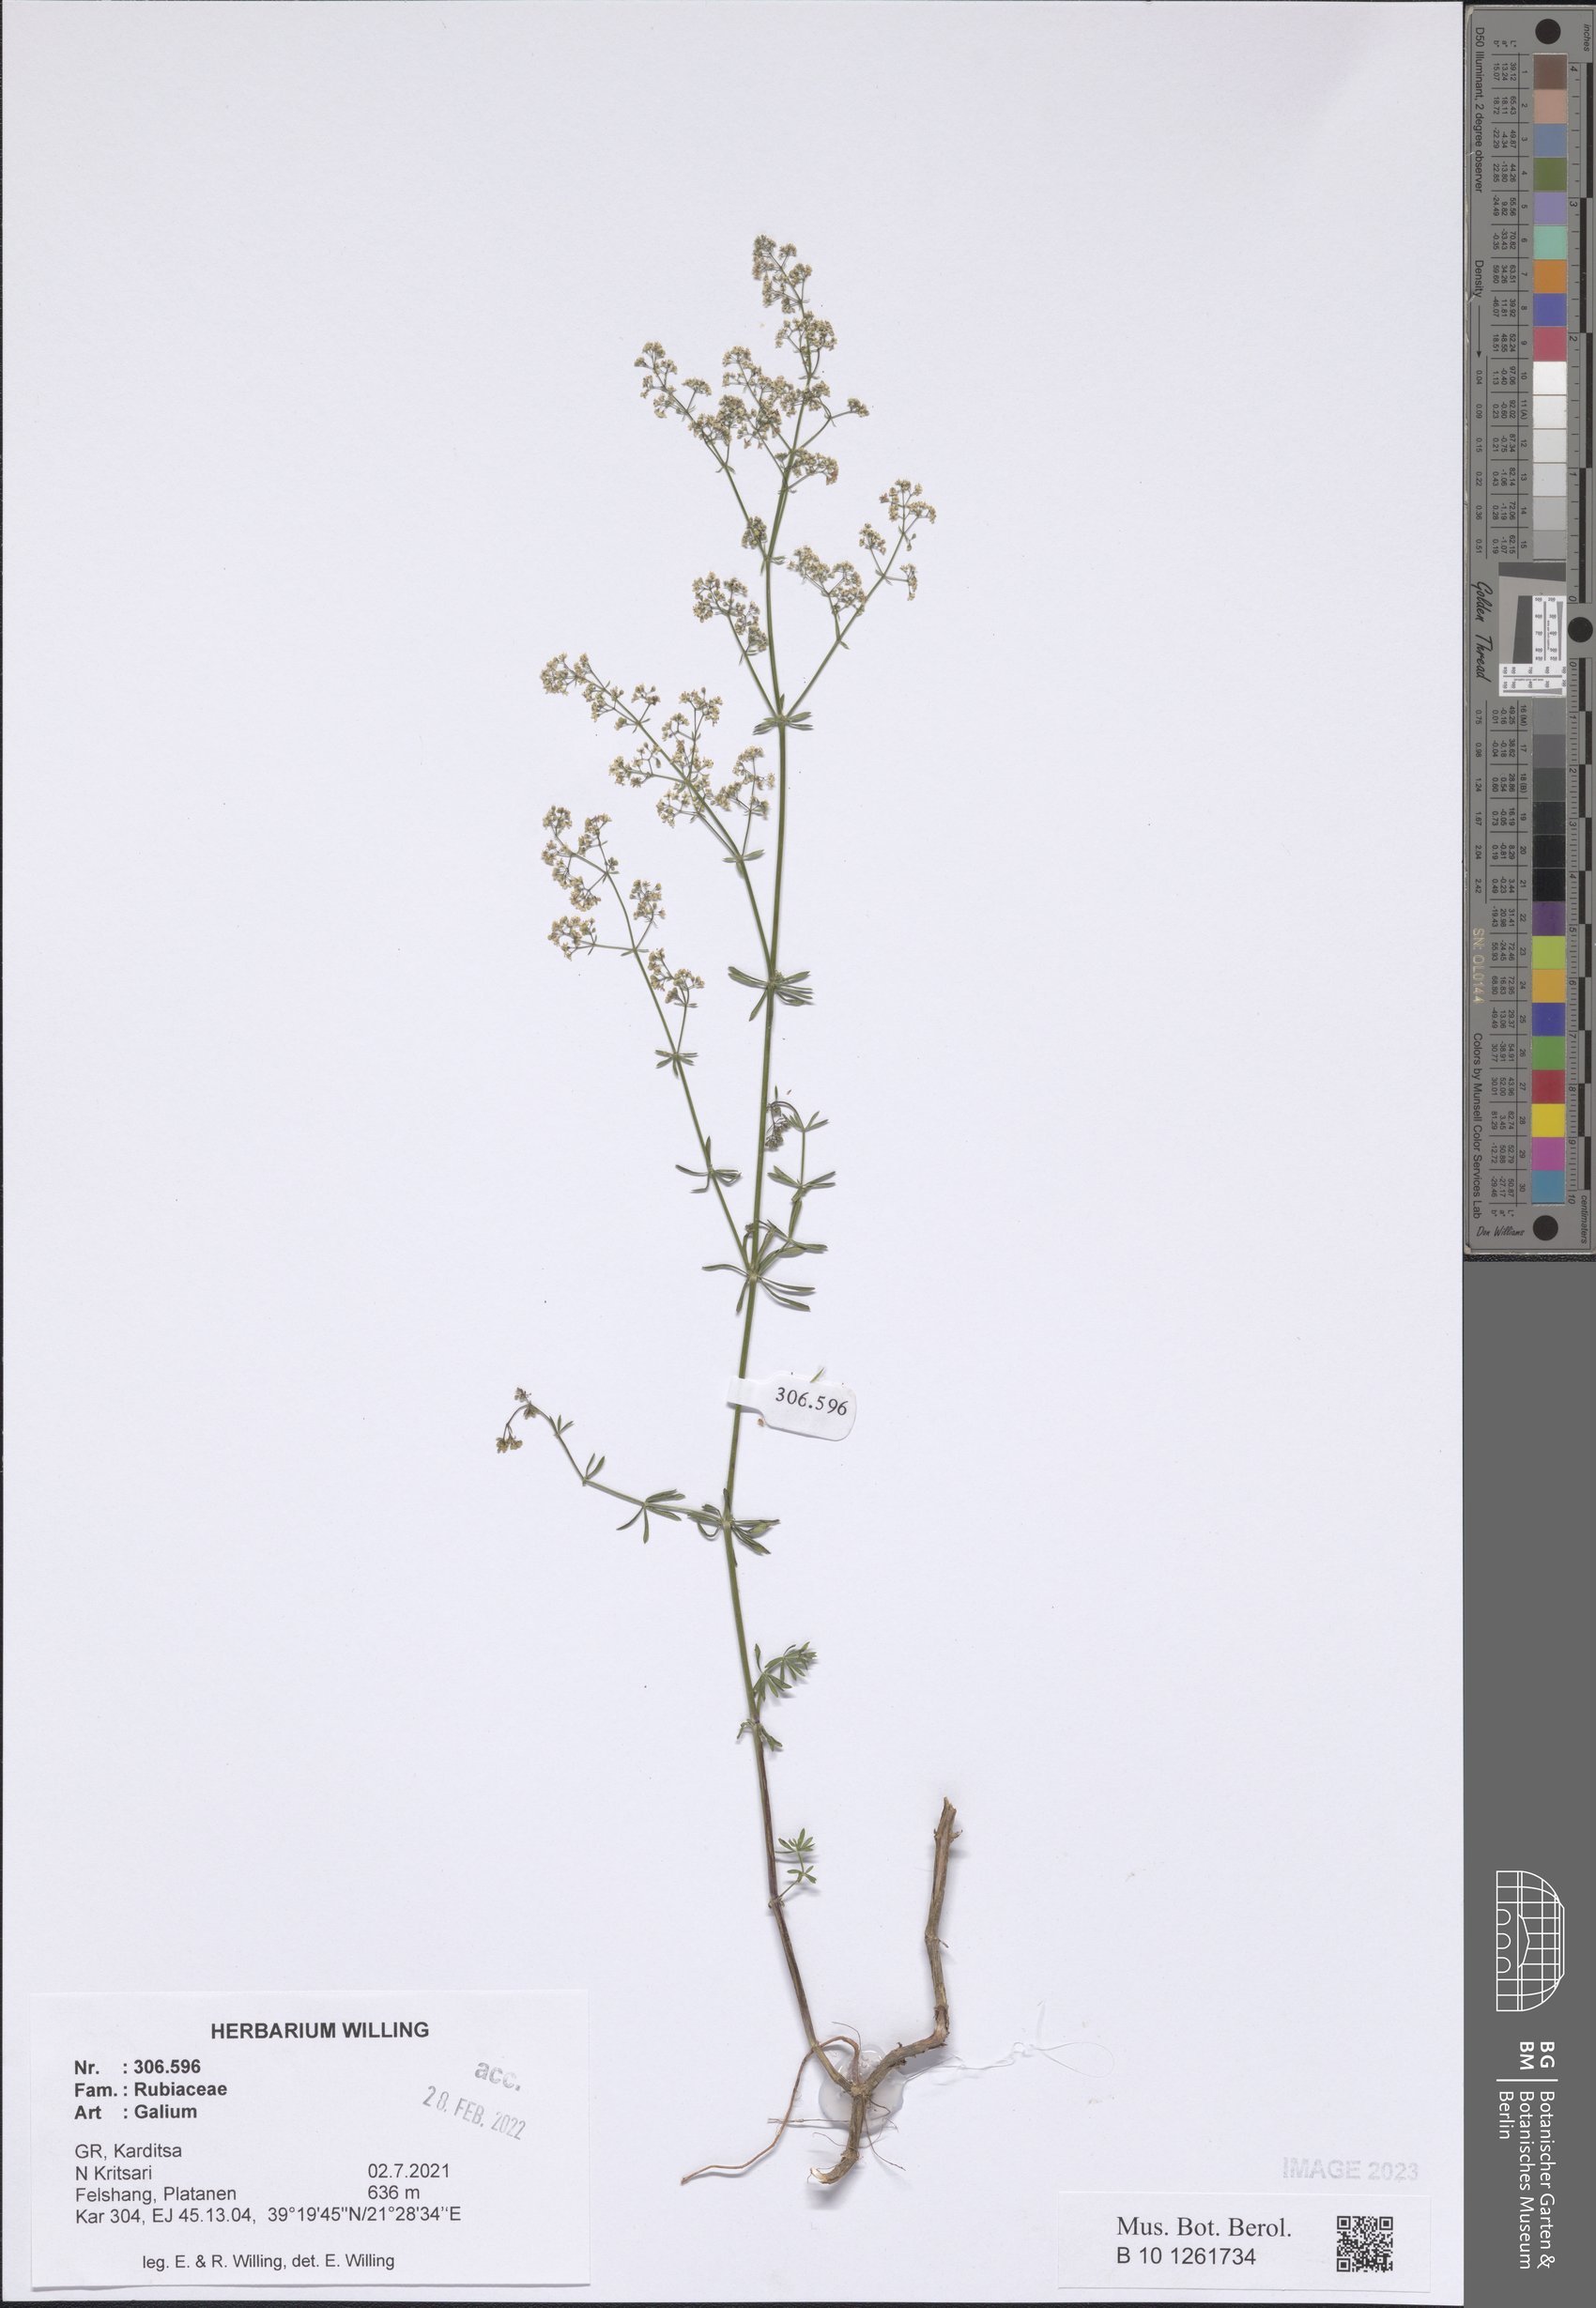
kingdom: Plantae
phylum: Tracheophyta
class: Magnoliopsida
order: Gentianales
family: Rubiaceae
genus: Galium
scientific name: Galium
